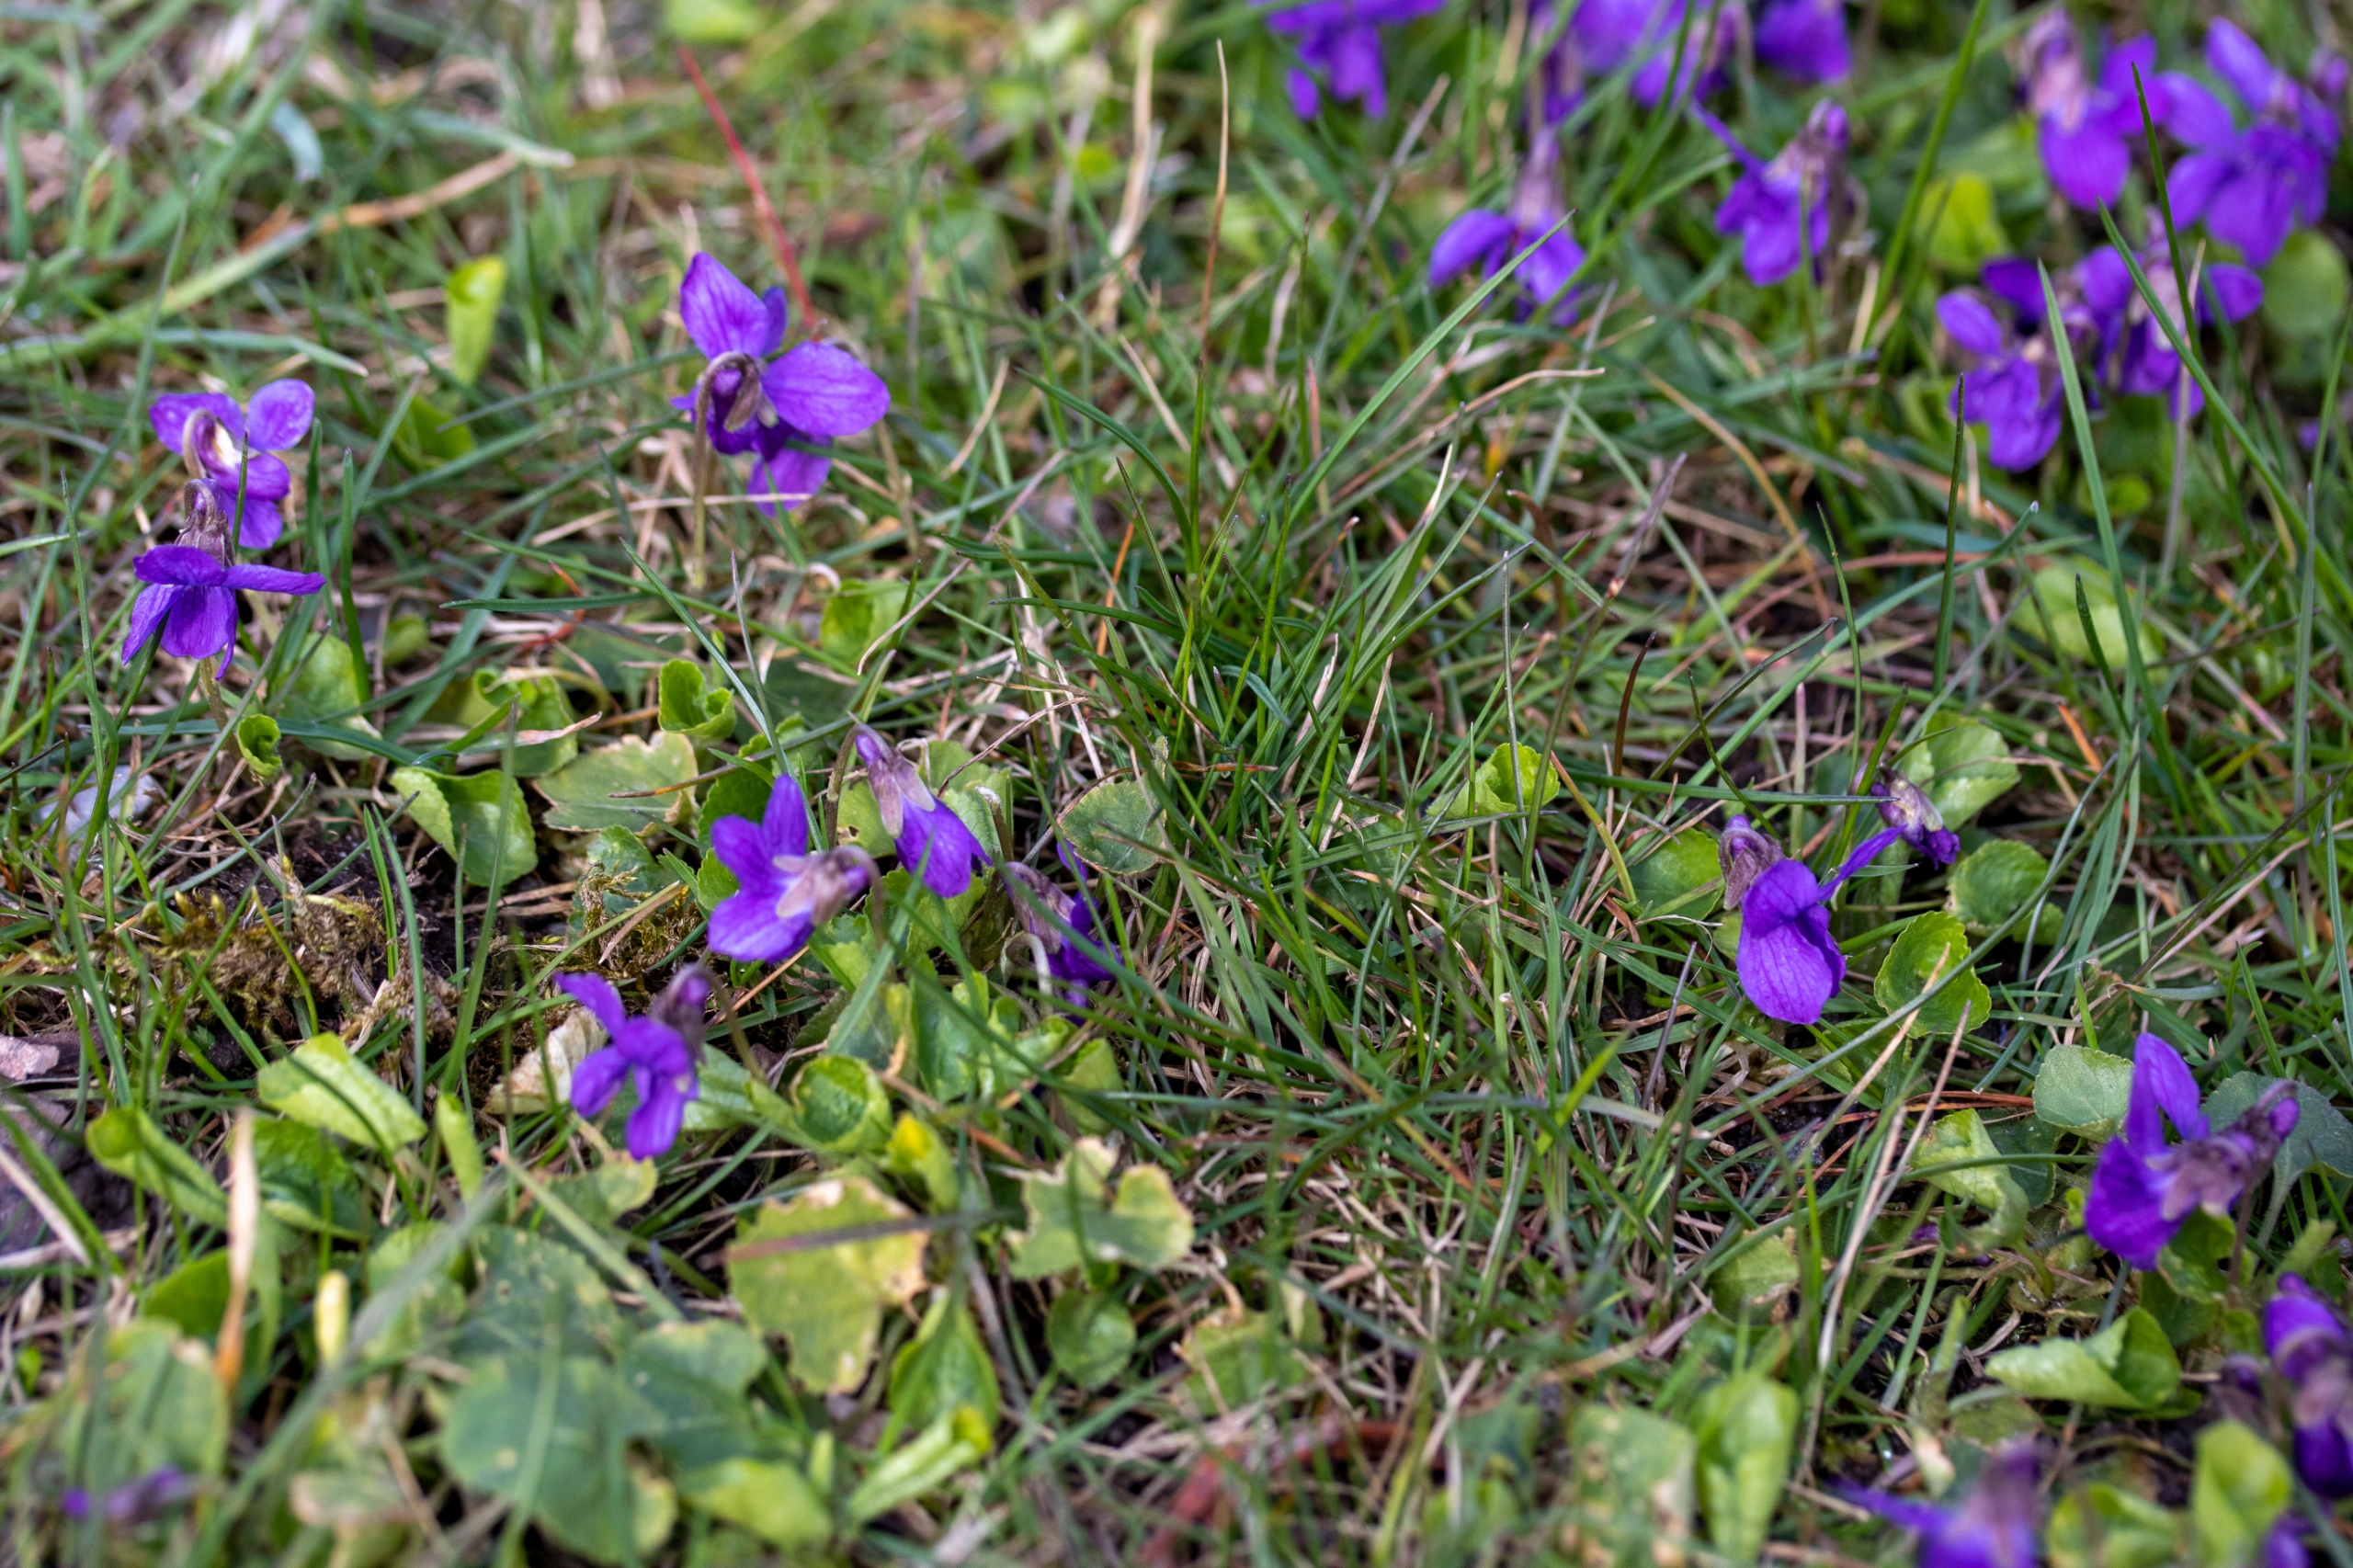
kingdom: Plantae
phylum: Tracheophyta
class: Magnoliopsida
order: Malpighiales
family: Violaceae
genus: Viola
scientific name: Viola odorata
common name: Marts-viol
